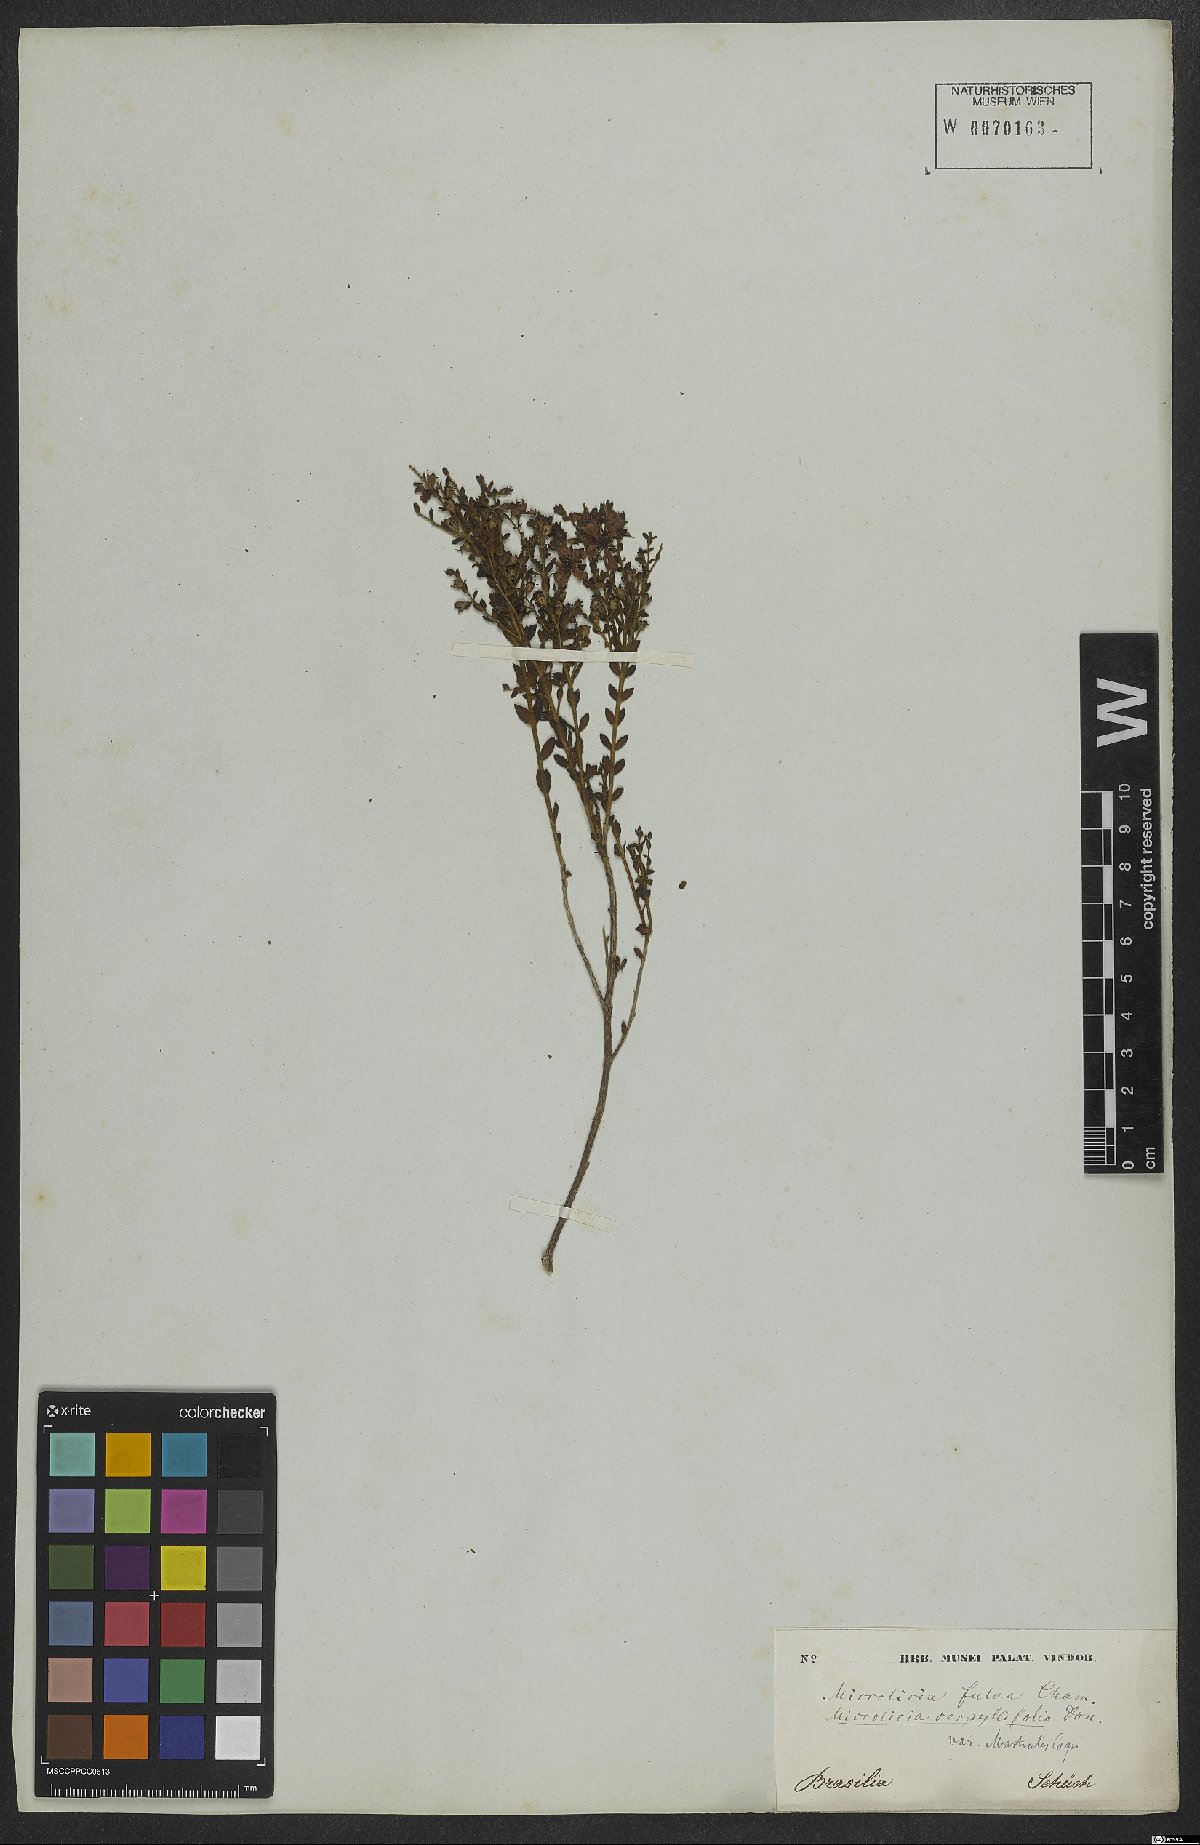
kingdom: Plantae
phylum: Tracheophyta
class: Magnoliopsida
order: Myrtales
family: Melastomataceae
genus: Microlicia
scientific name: Microlicia fulva
